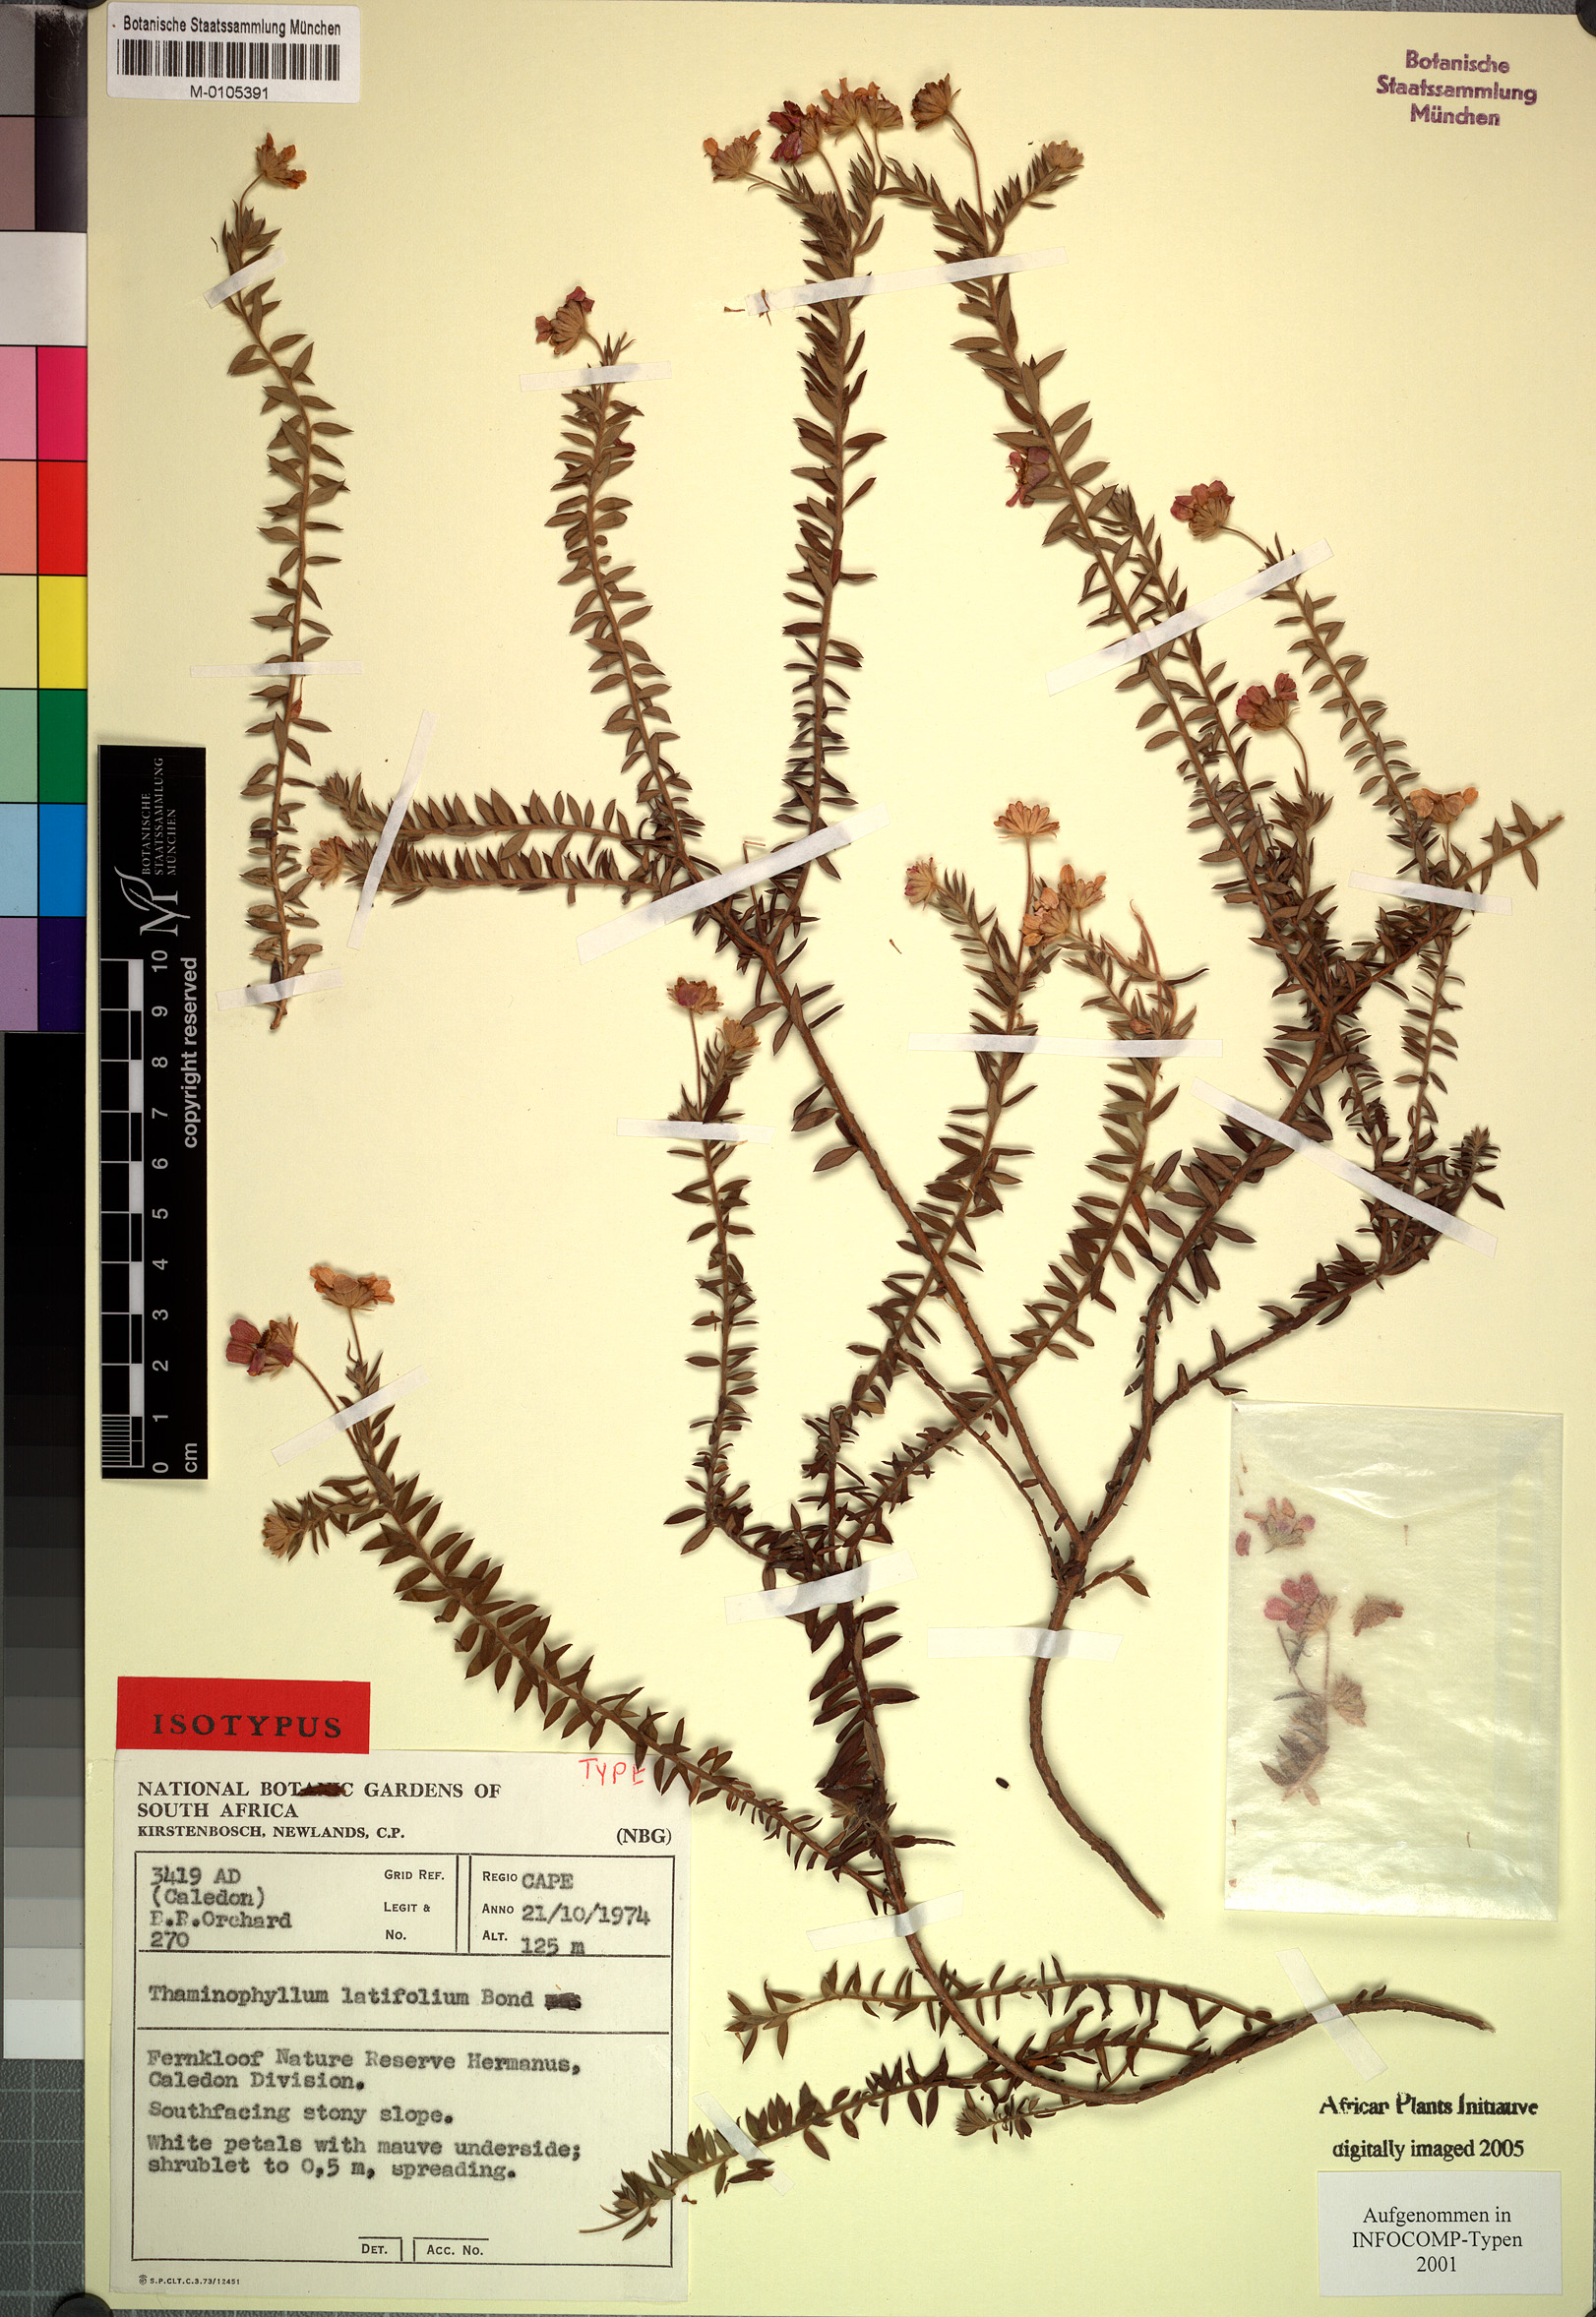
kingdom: Plantae
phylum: Tracheophyta
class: Magnoliopsida
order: Asterales
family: Asteraceae
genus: Thaminophyllum
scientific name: Thaminophyllum latifolium
